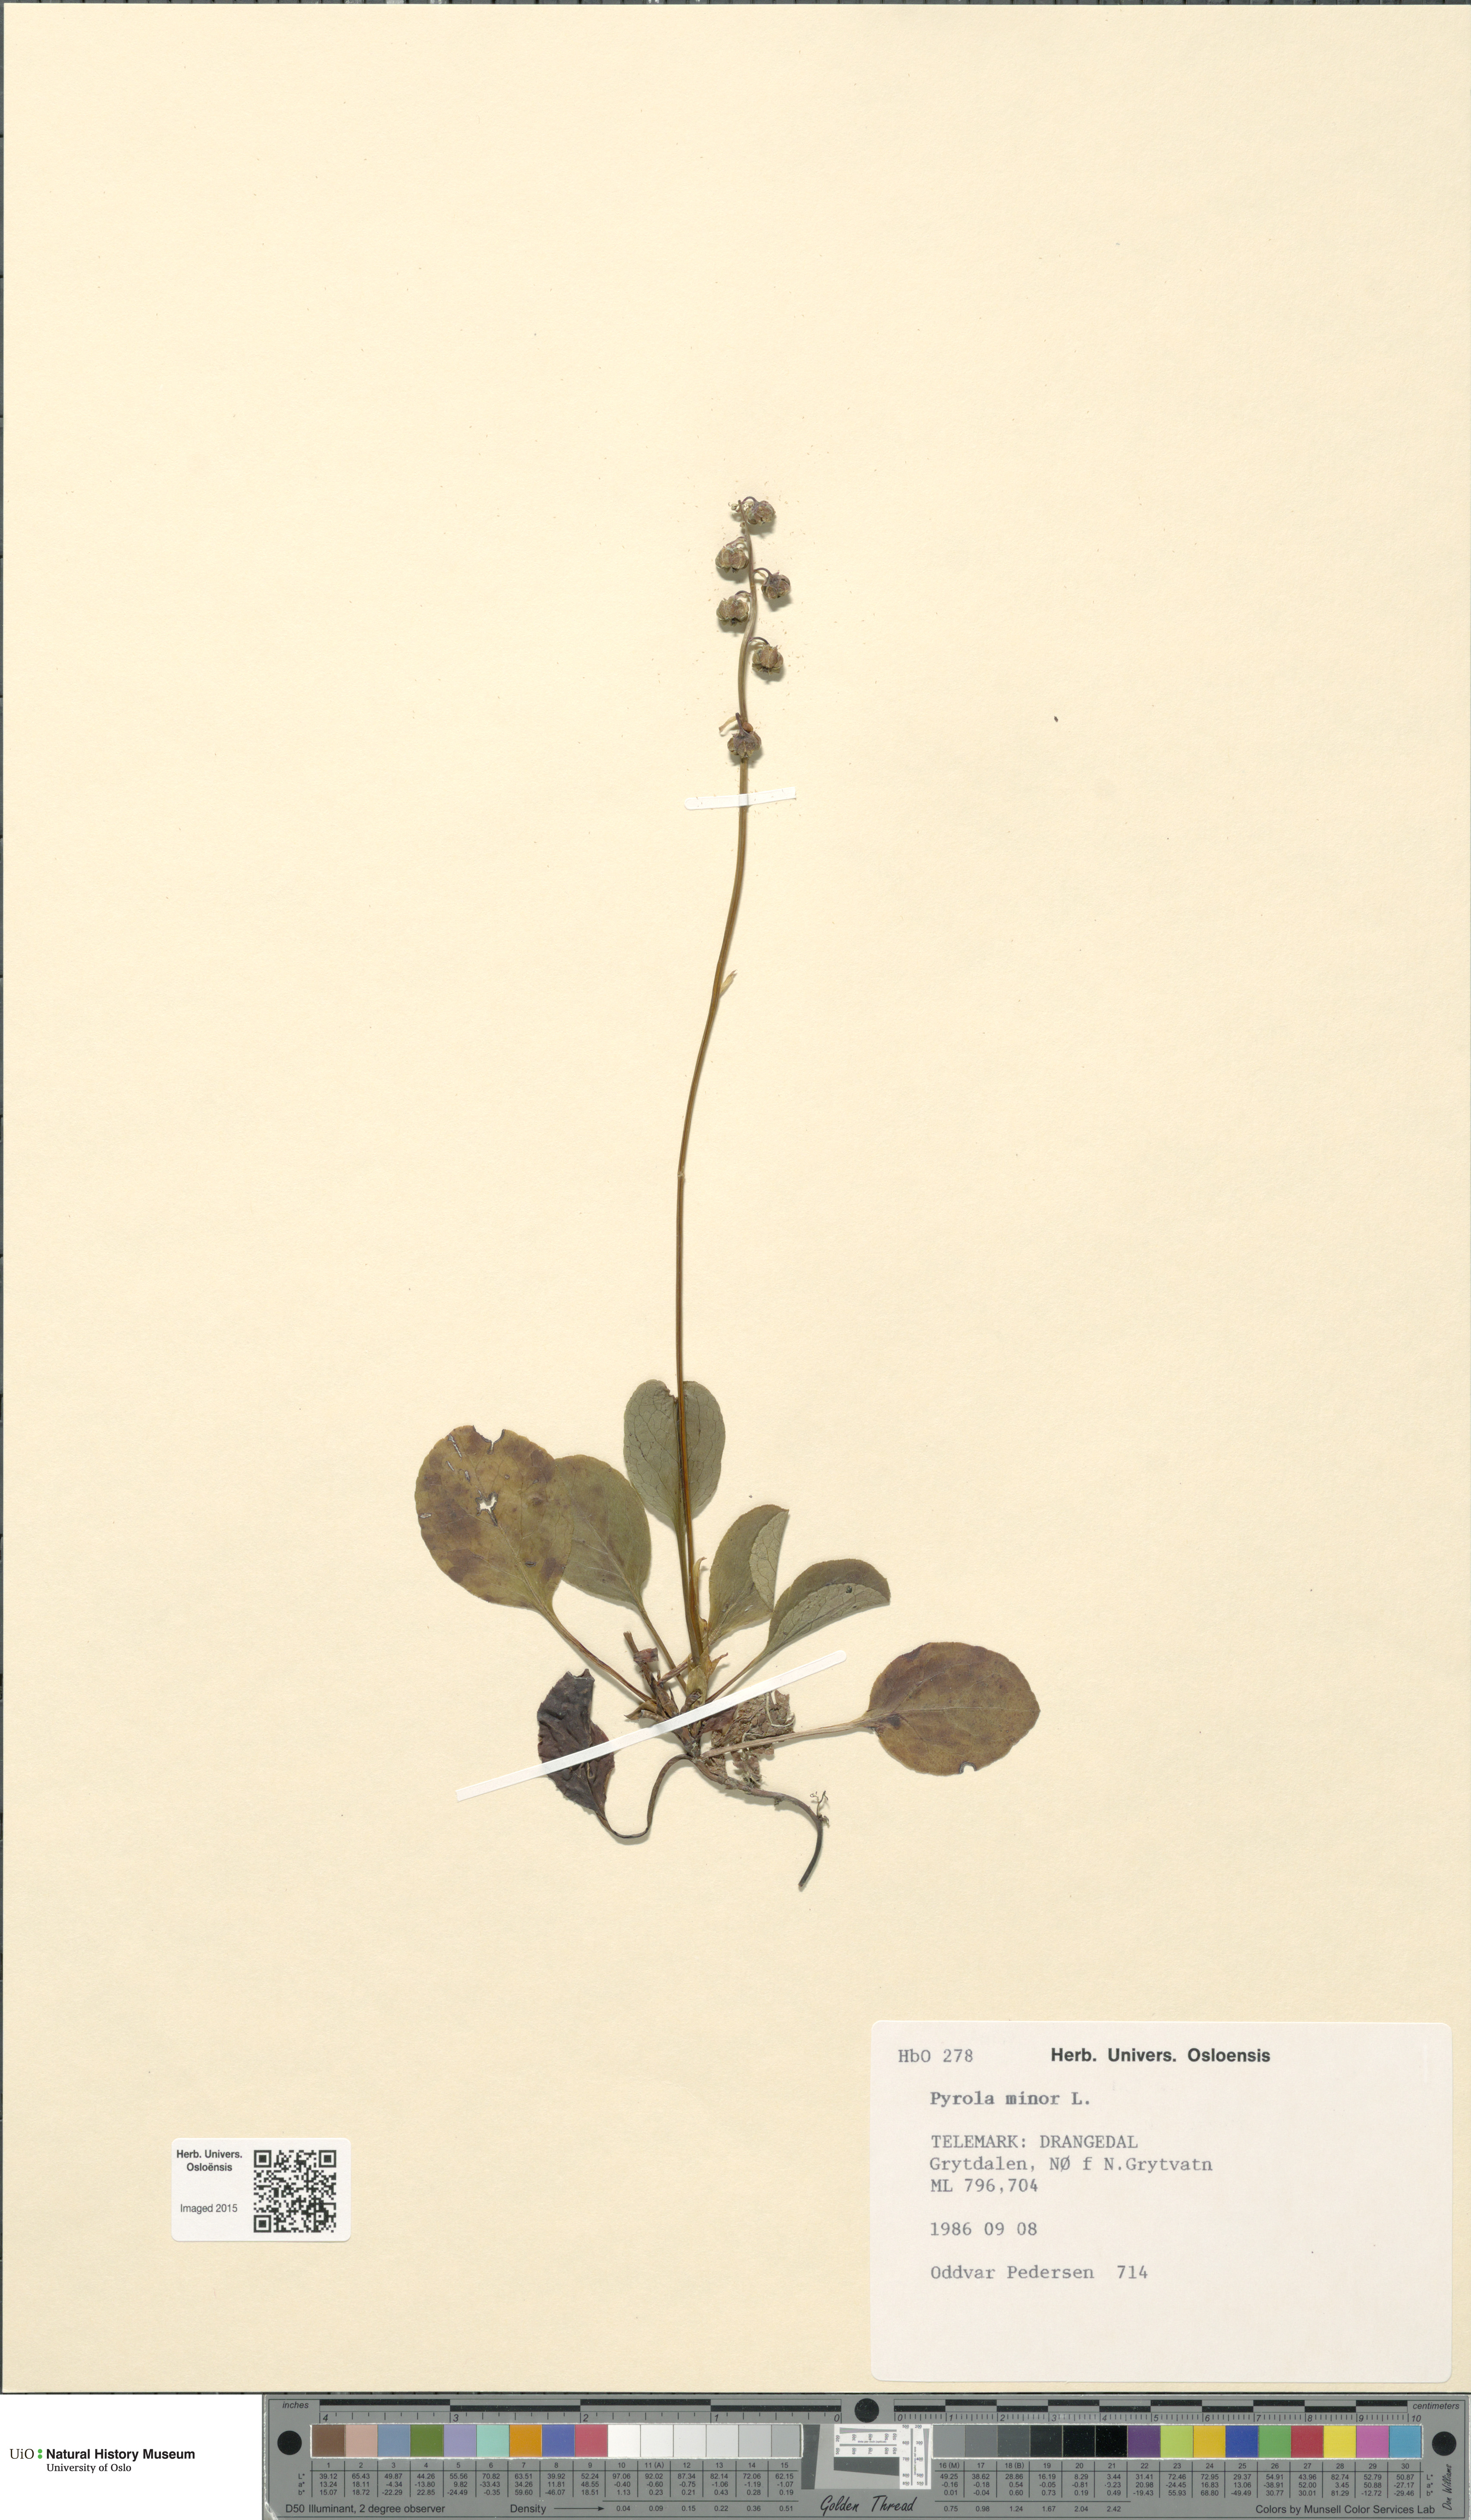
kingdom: Plantae
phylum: Tracheophyta
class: Magnoliopsida
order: Ericales
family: Ericaceae
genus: Pyrola
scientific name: Pyrola minor
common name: Common wintergreen
